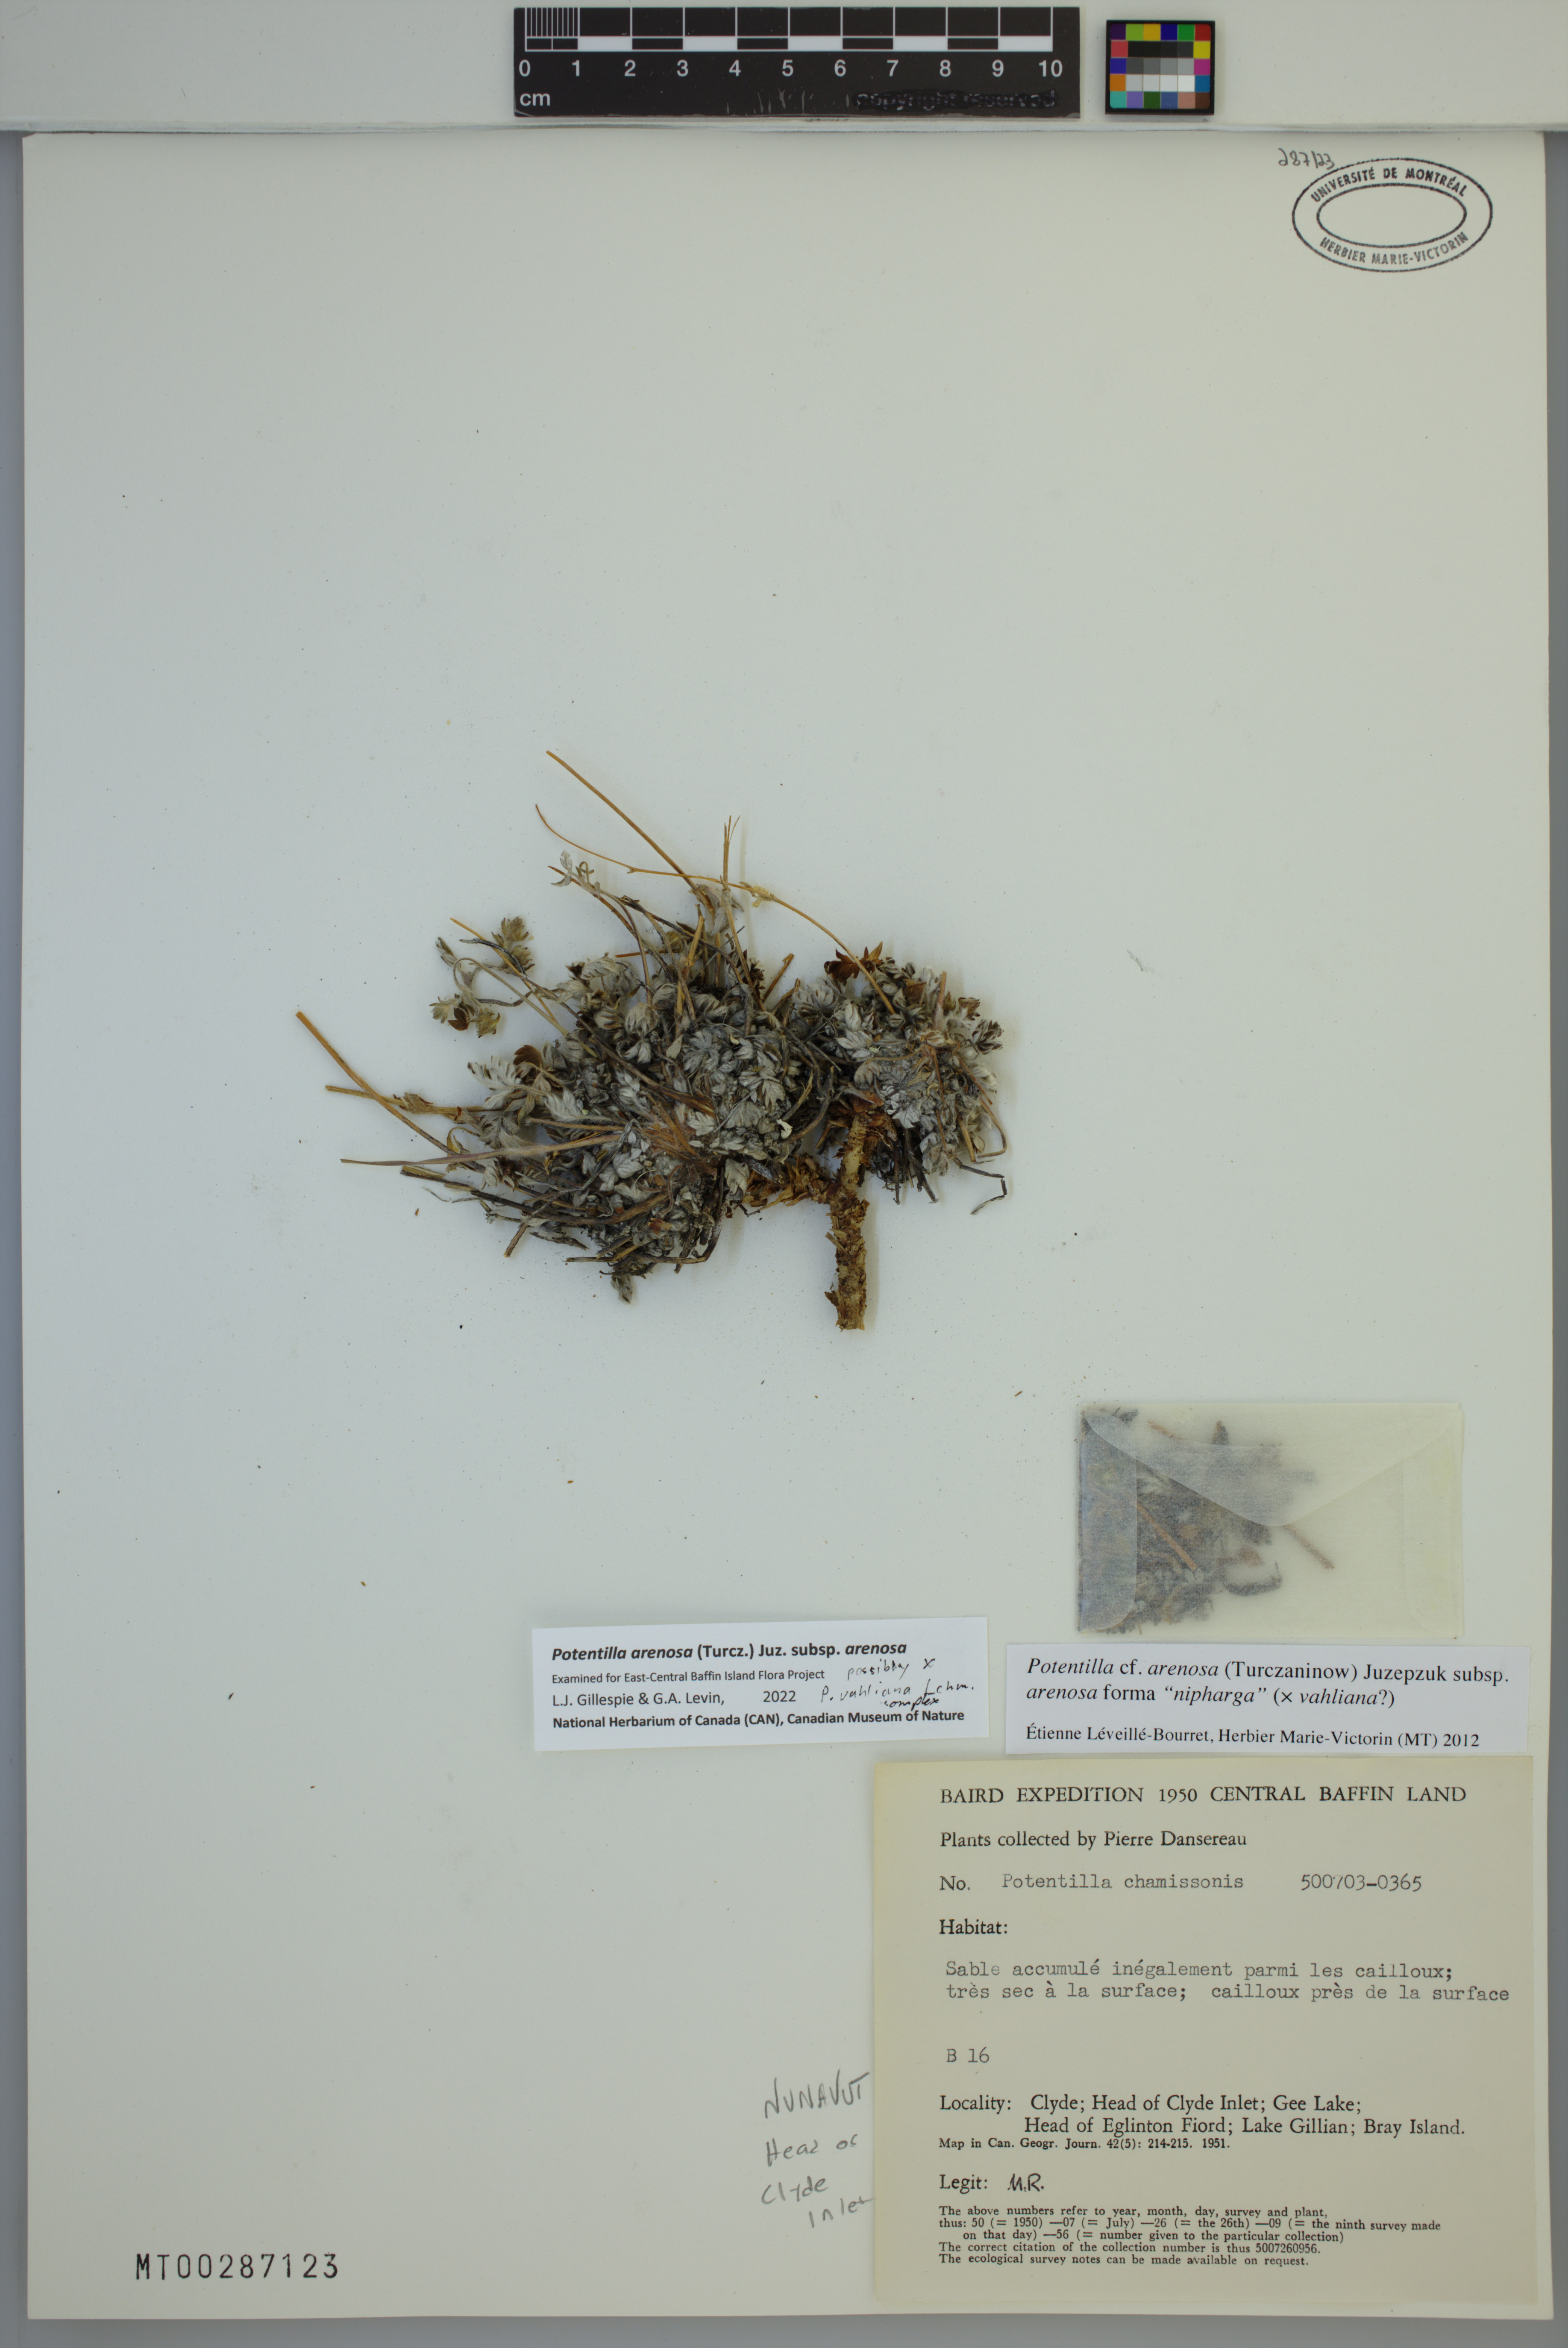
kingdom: Plantae
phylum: Tracheophyta
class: Magnoliopsida
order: Rosales
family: Rosaceae
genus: Potentilla
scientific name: Potentilla arenosa
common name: Bluff cinquefoil
